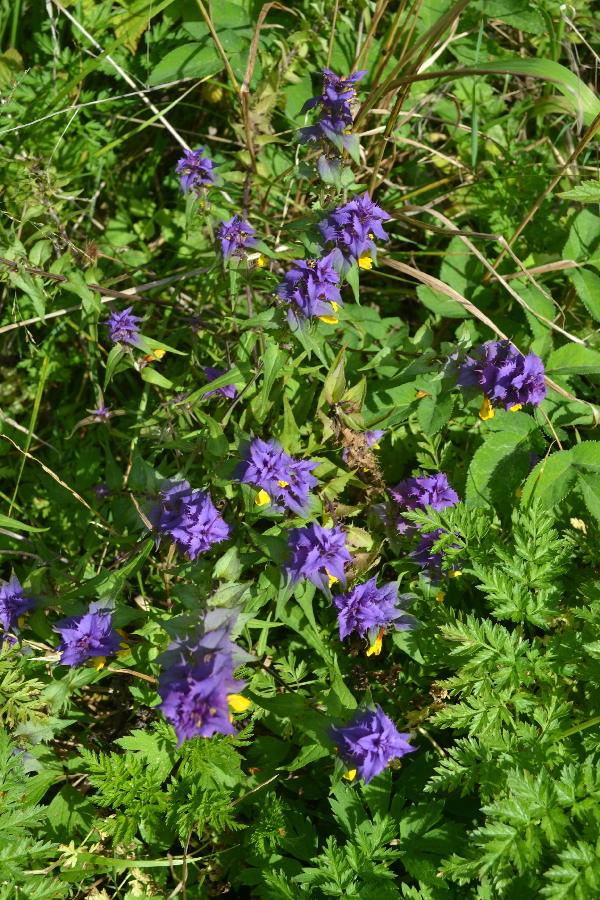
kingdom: Plantae
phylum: Tracheophyta
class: Magnoliopsida
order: Lamiales
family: Orobanchaceae
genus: Melampyrum
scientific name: Melampyrum nemorosum
